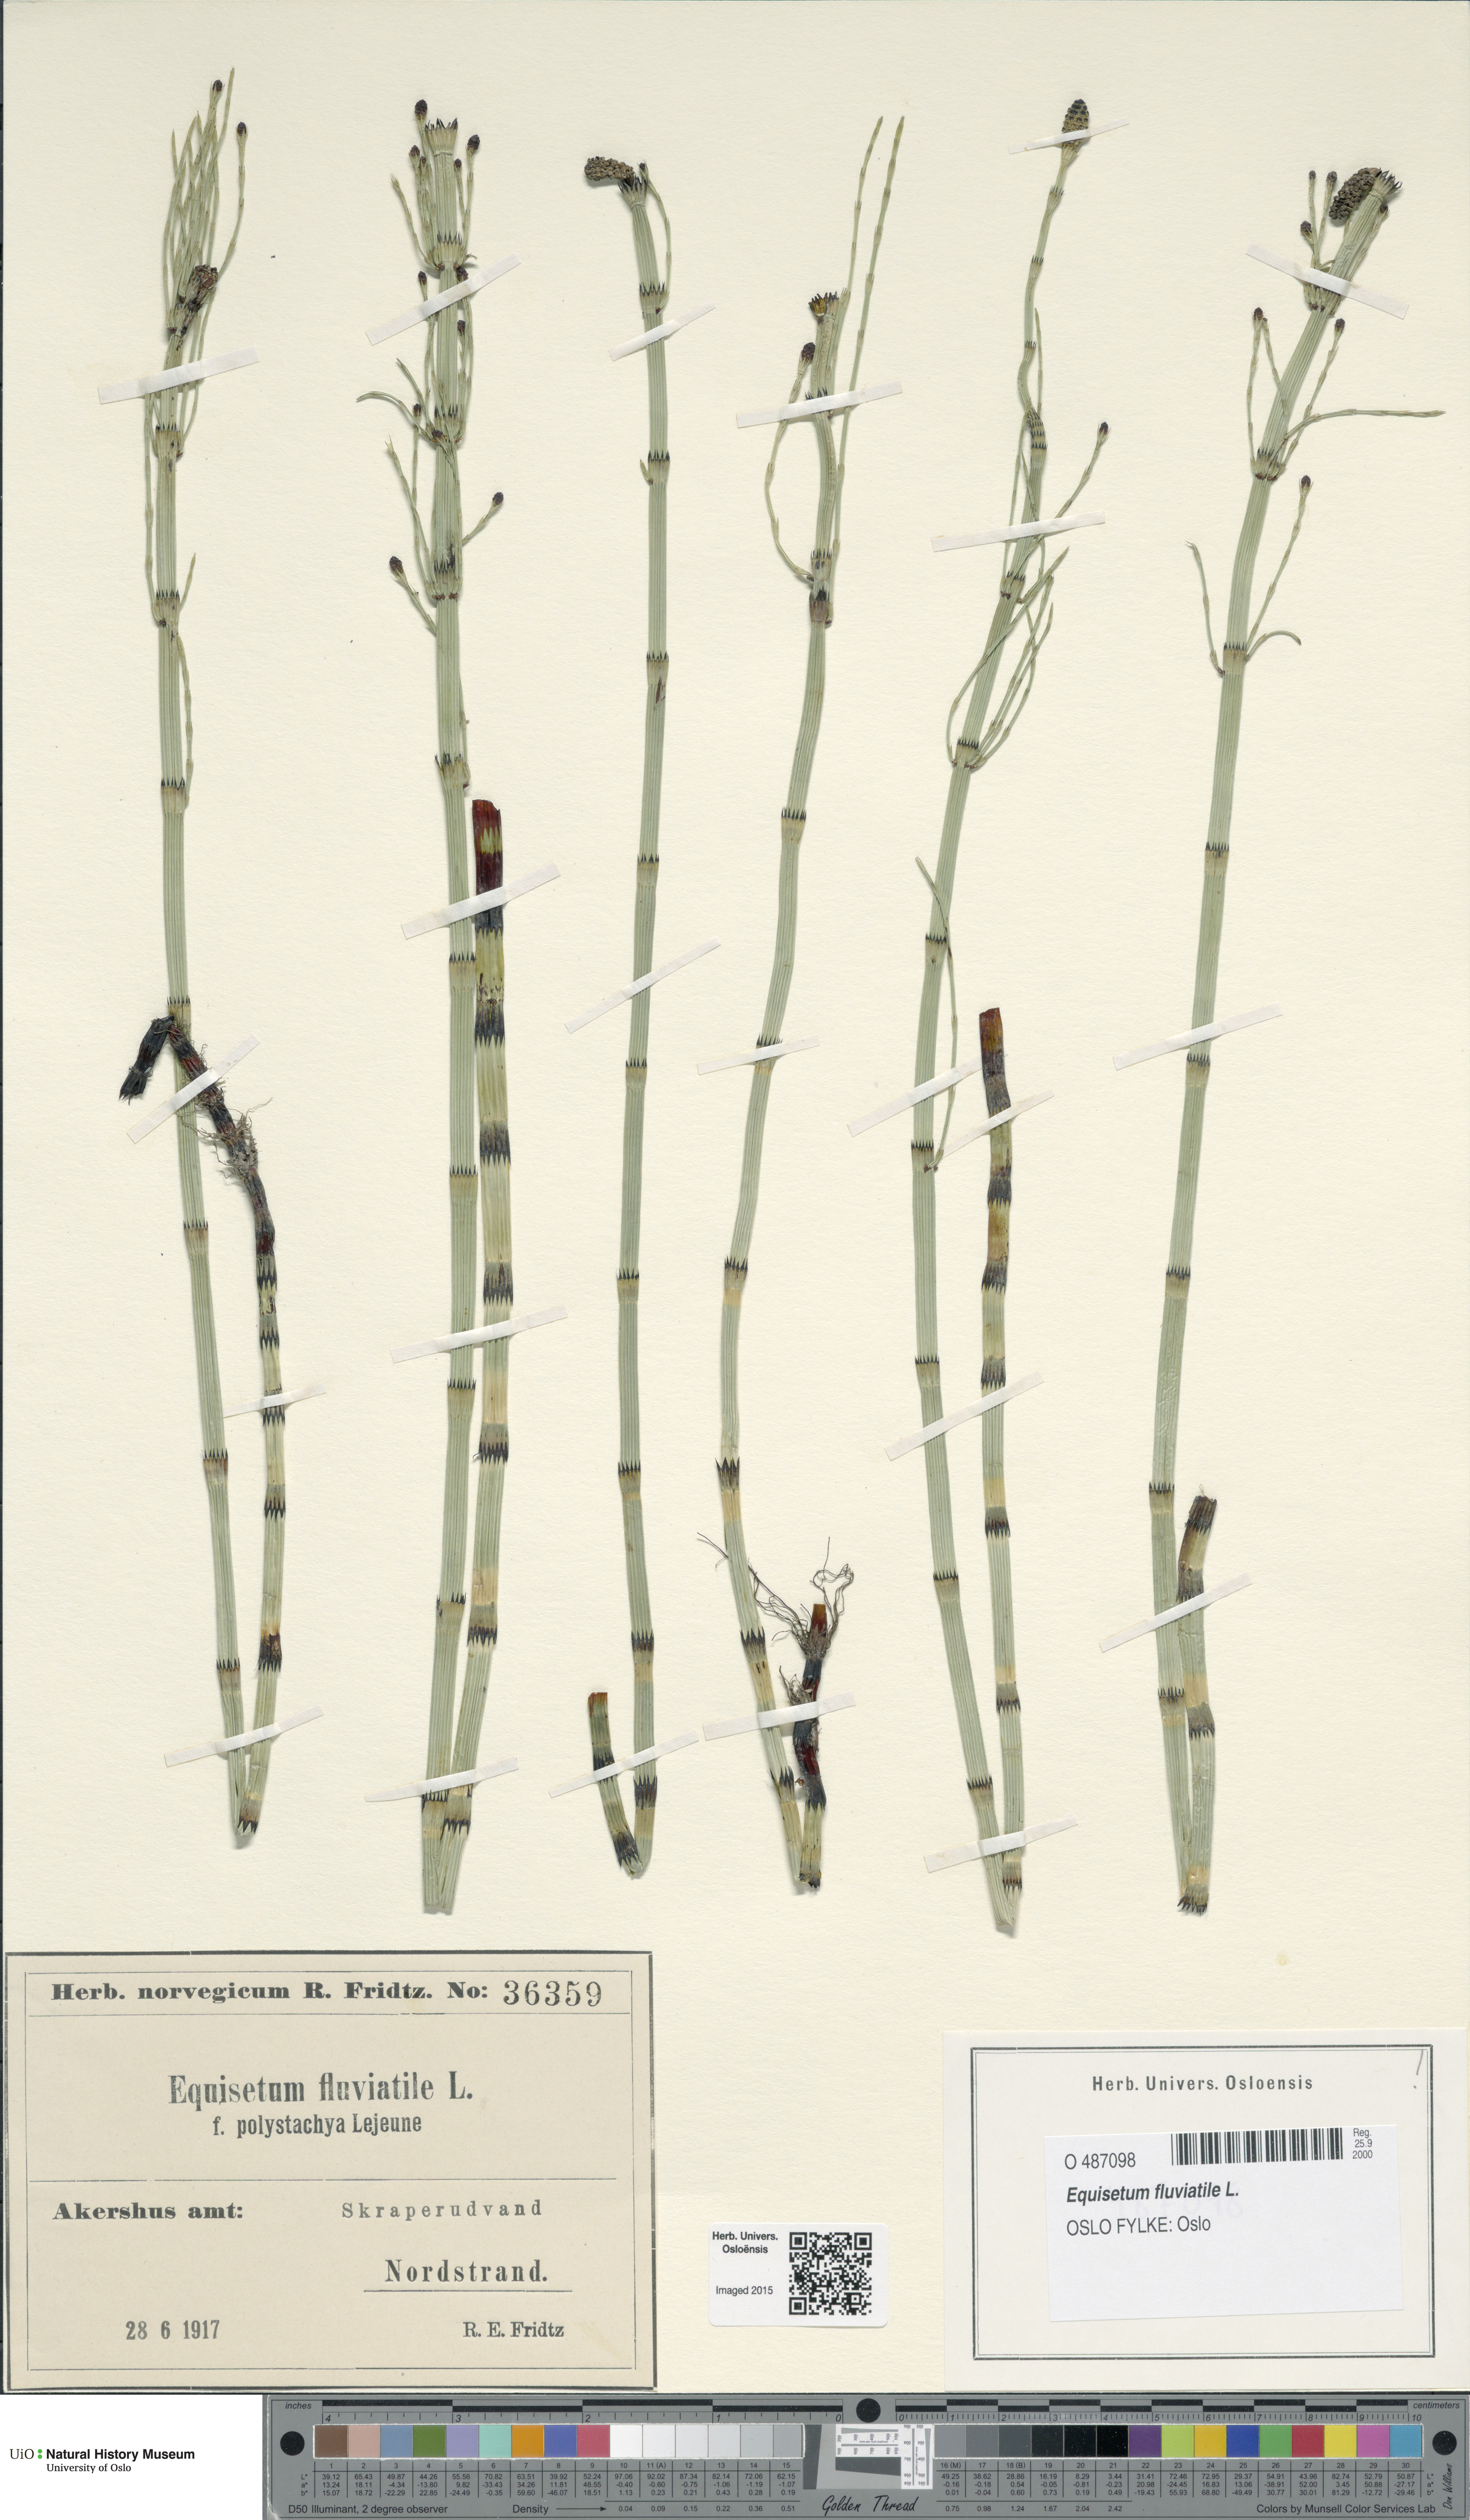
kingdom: Plantae
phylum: Tracheophyta
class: Polypodiopsida
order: Equisetales
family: Equisetaceae
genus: Equisetum
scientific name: Equisetum fluviatile
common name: Water horsetail
